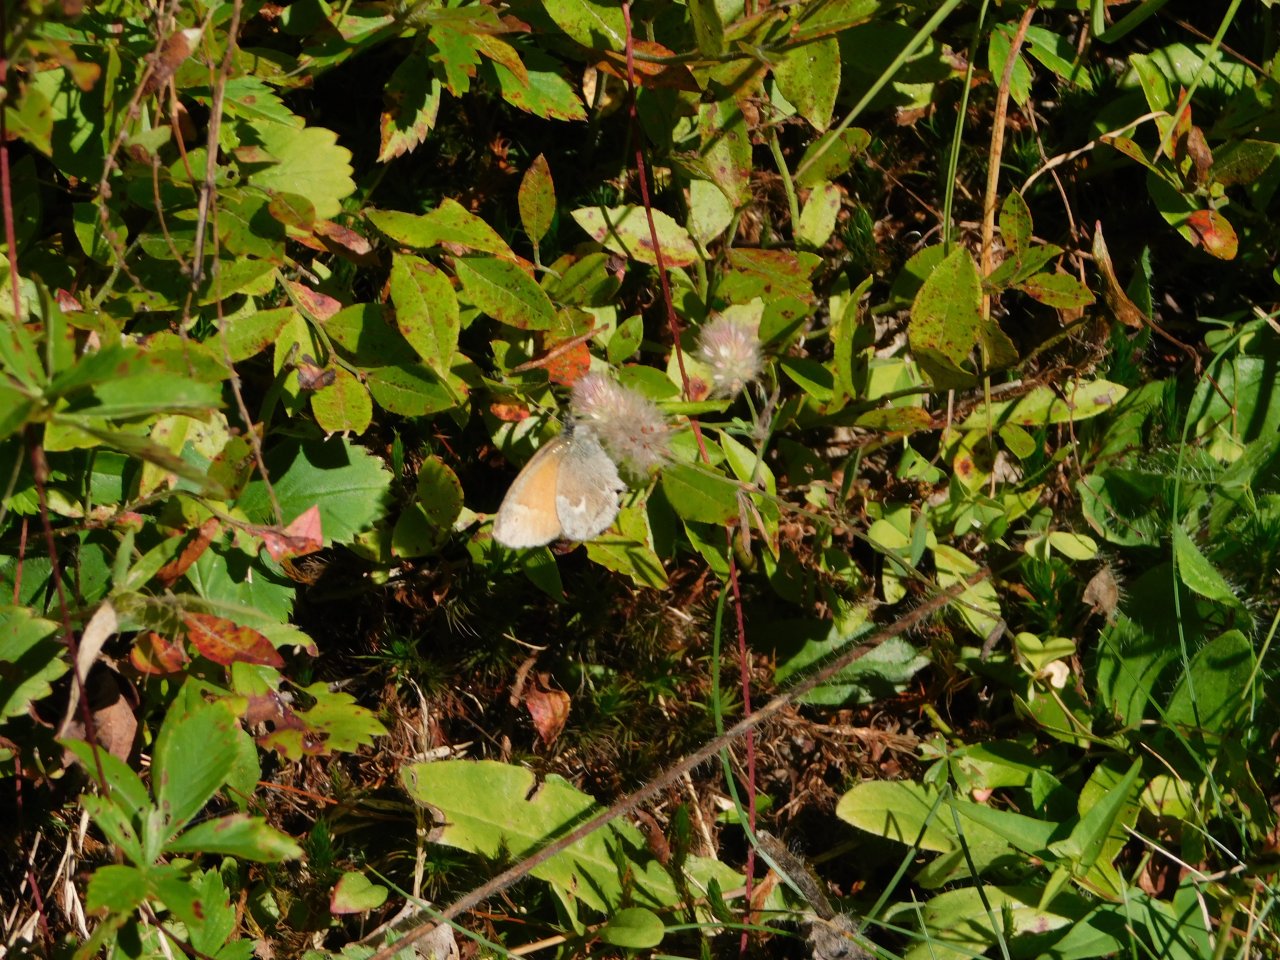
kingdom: Animalia
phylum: Arthropoda
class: Insecta
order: Lepidoptera
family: Nymphalidae
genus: Coenonympha
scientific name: Coenonympha tullia
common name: Large Heath
